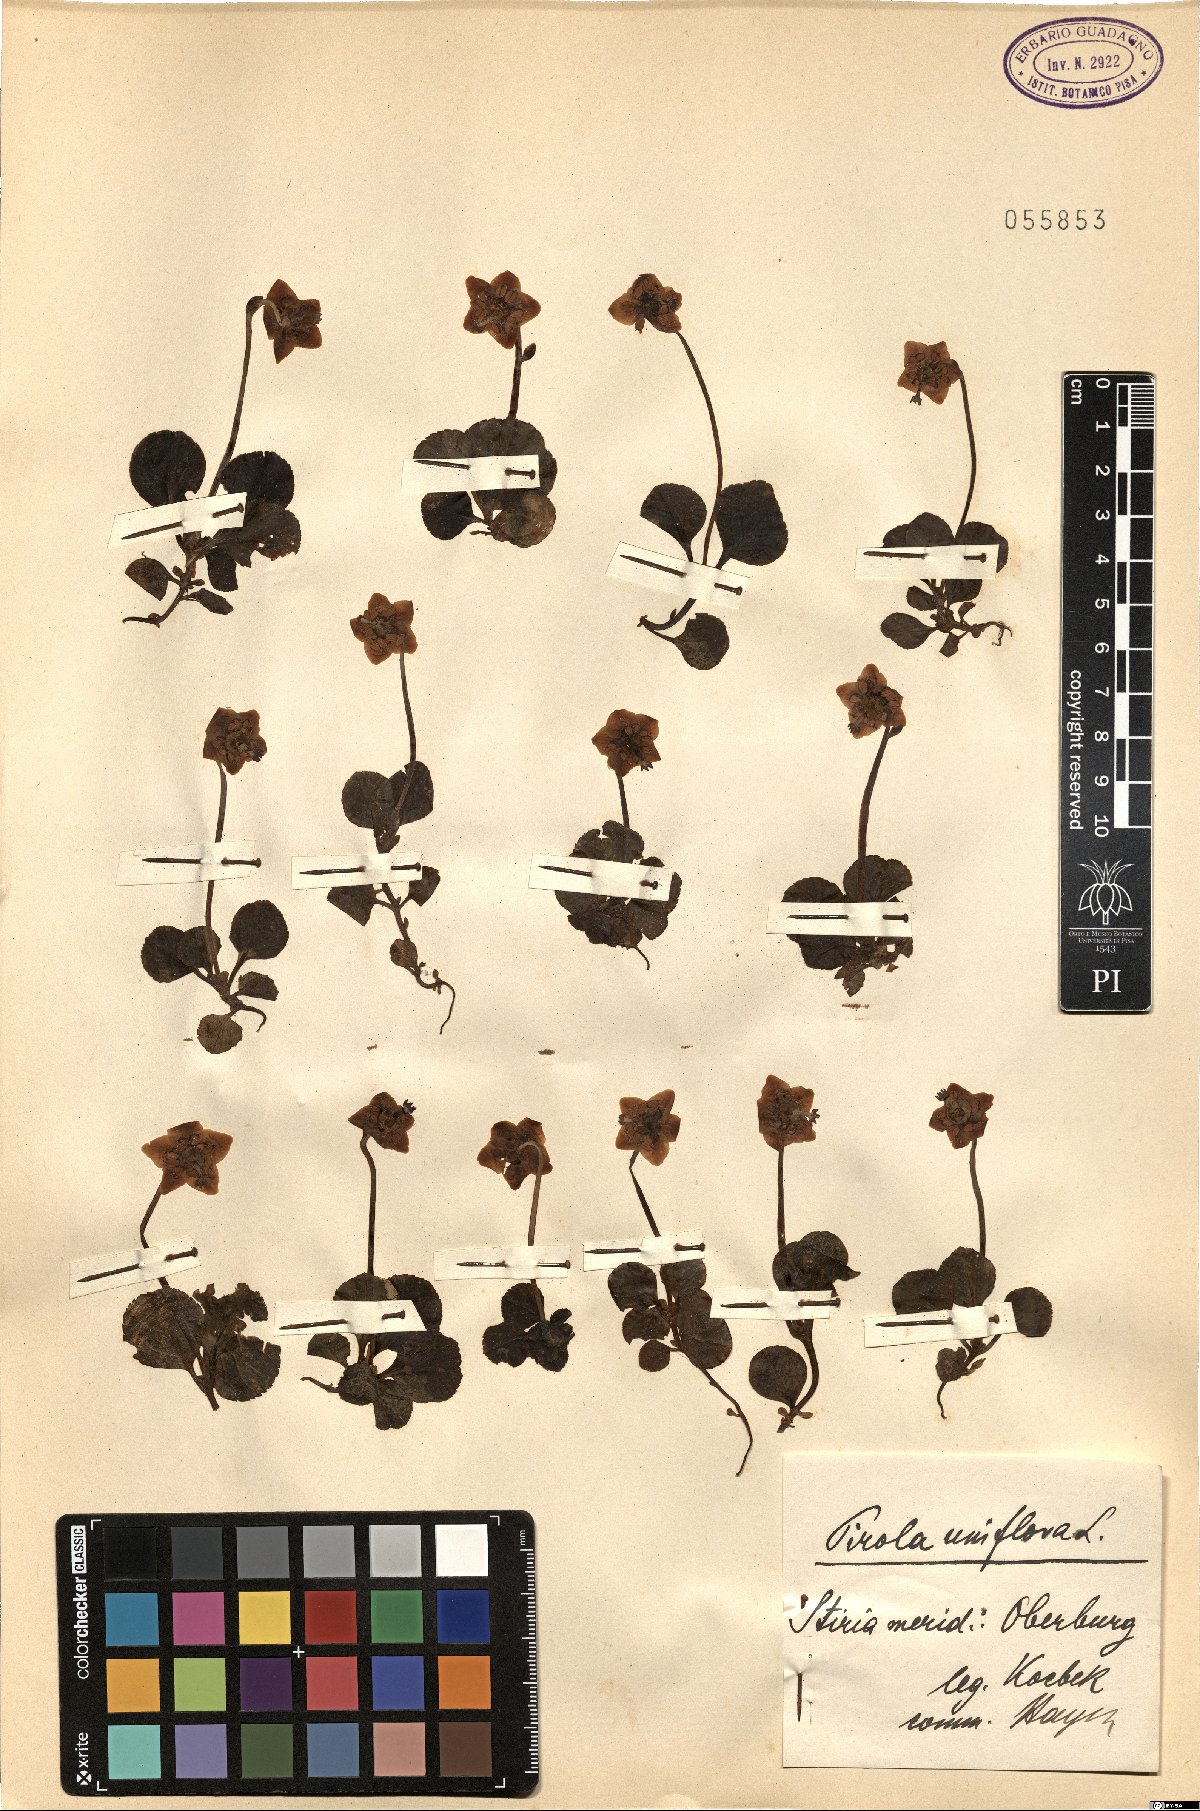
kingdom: Plantae
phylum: Tracheophyta
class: Magnoliopsida
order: Ericales
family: Ericaceae
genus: Moneses
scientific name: Moneses uniflora
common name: One-flowered wintergreen
